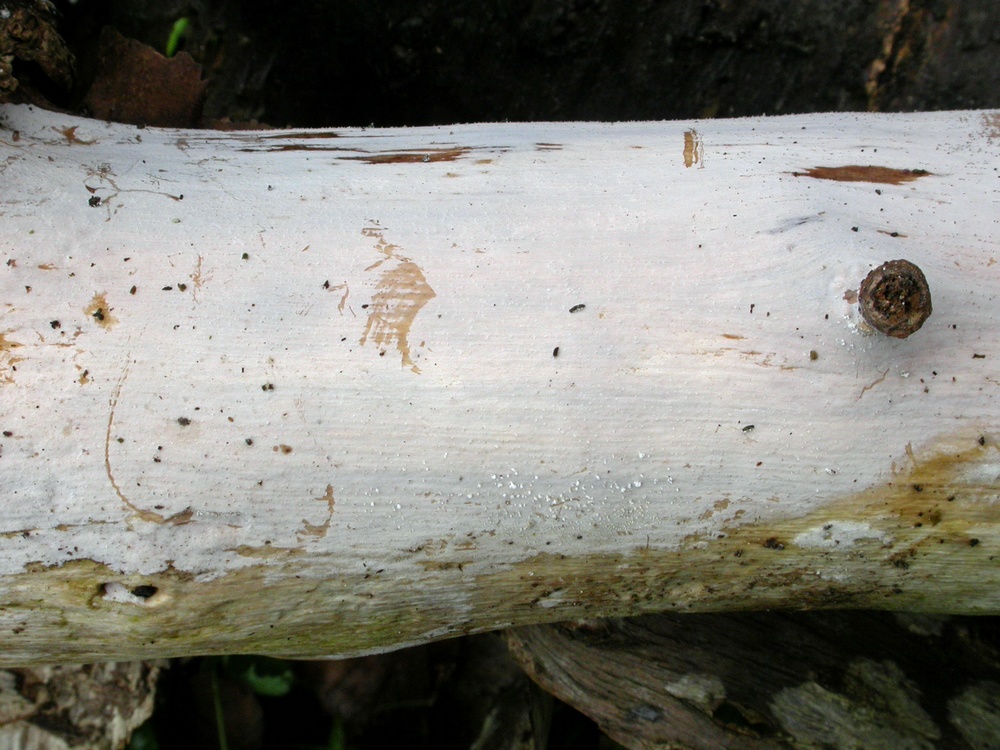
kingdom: Fungi
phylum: Basidiomycota
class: Tremellomycetes
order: Tremellales
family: Exidiaceae
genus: Exidiopsis
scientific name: Exidiopsis effusa
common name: smuk bævrehinde
